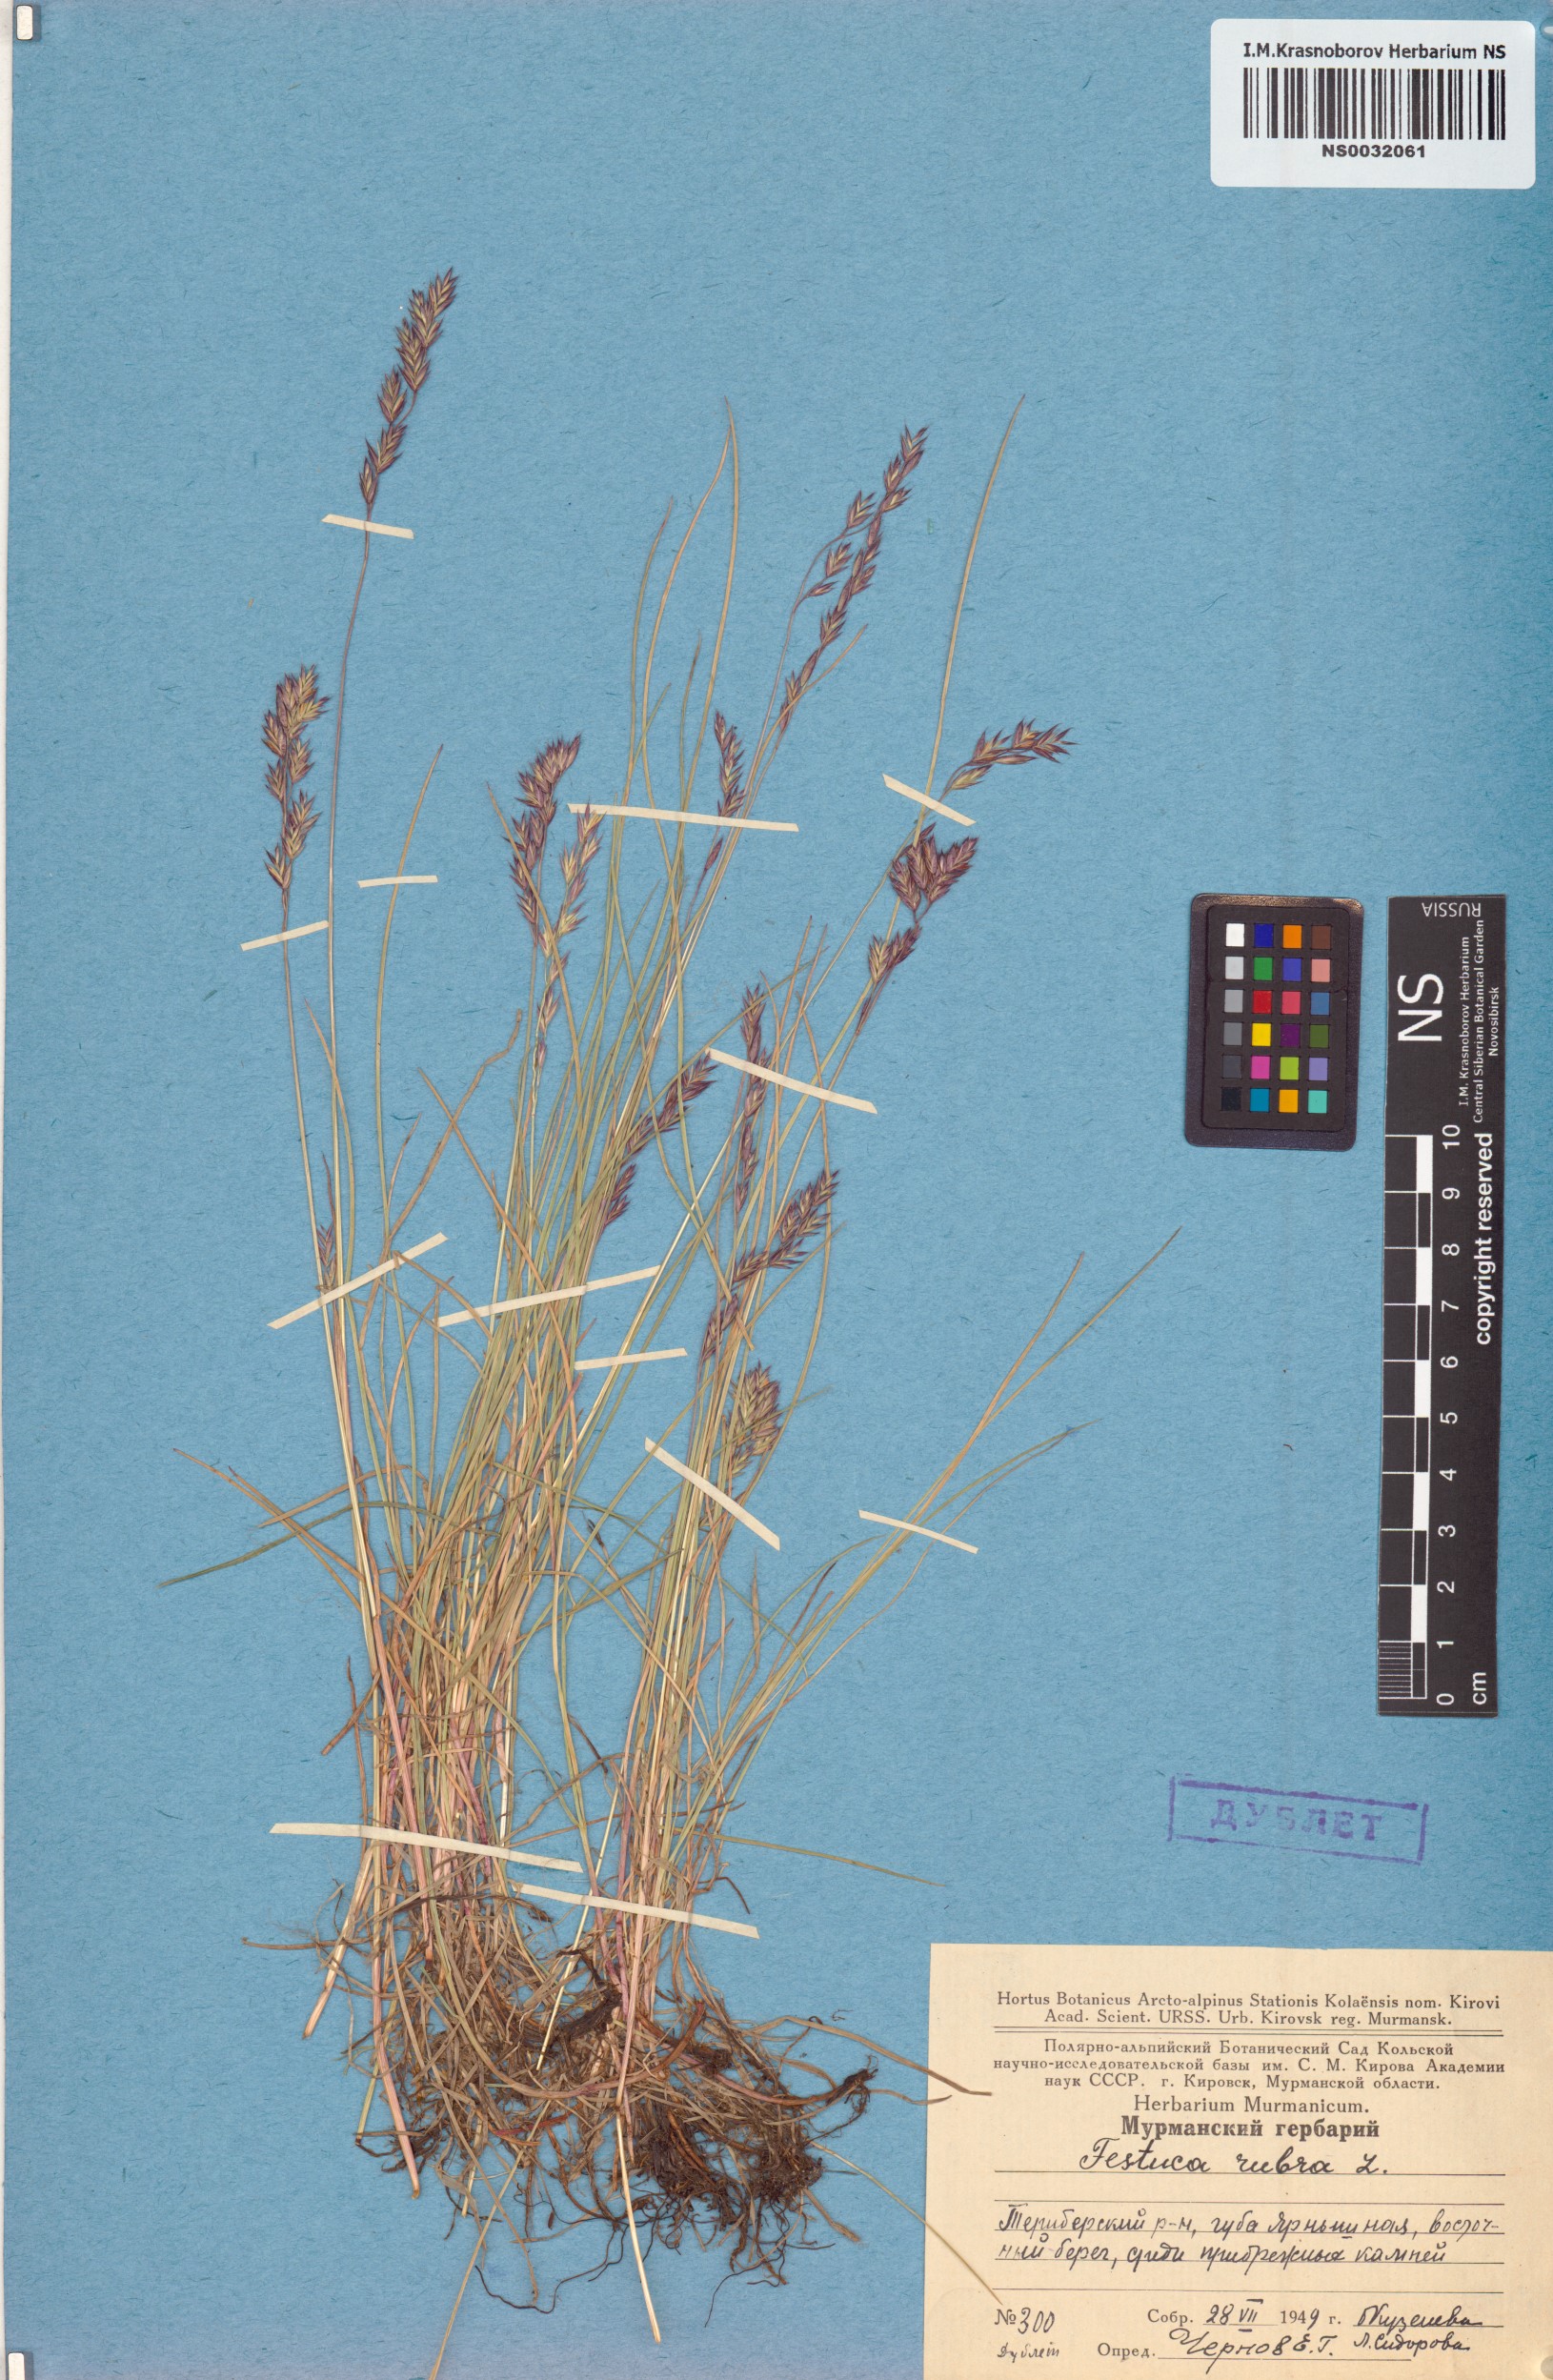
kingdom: Plantae
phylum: Tracheophyta
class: Liliopsida
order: Poales
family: Poaceae
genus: Festuca
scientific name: Festuca rubra
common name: Red fescue
